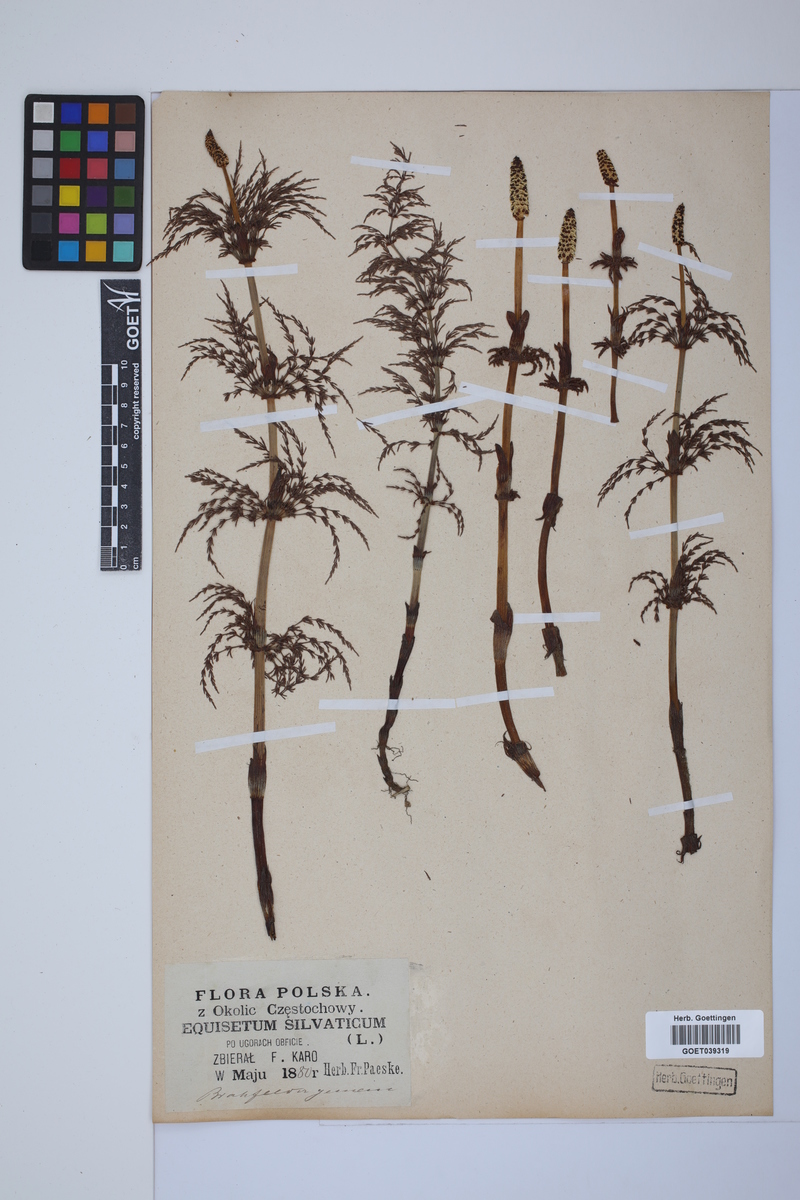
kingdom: Plantae
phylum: Tracheophyta
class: Polypodiopsida
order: Equisetales
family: Equisetaceae
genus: Equisetum
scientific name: Equisetum sylvaticum
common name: Wood horsetail
